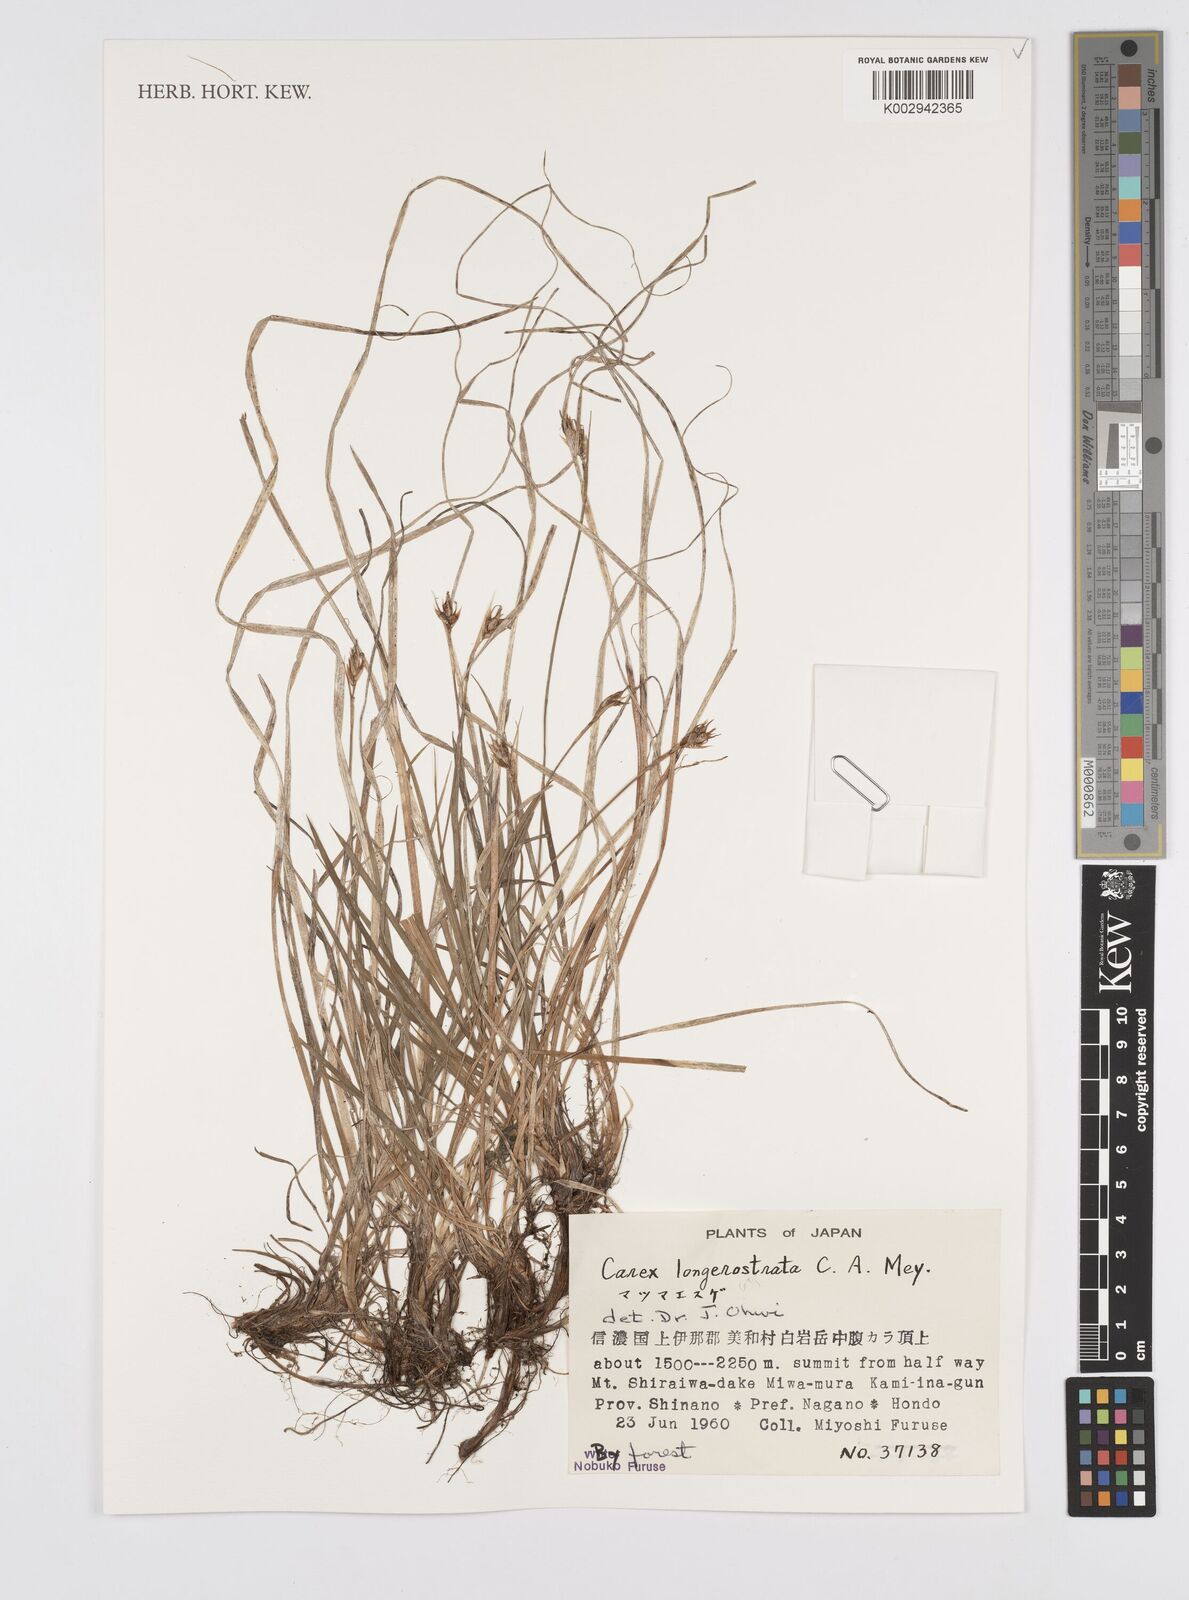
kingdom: Plantae
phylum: Tracheophyta
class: Liliopsida
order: Poales
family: Cyperaceae
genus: Carex
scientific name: Carex longerostrata
